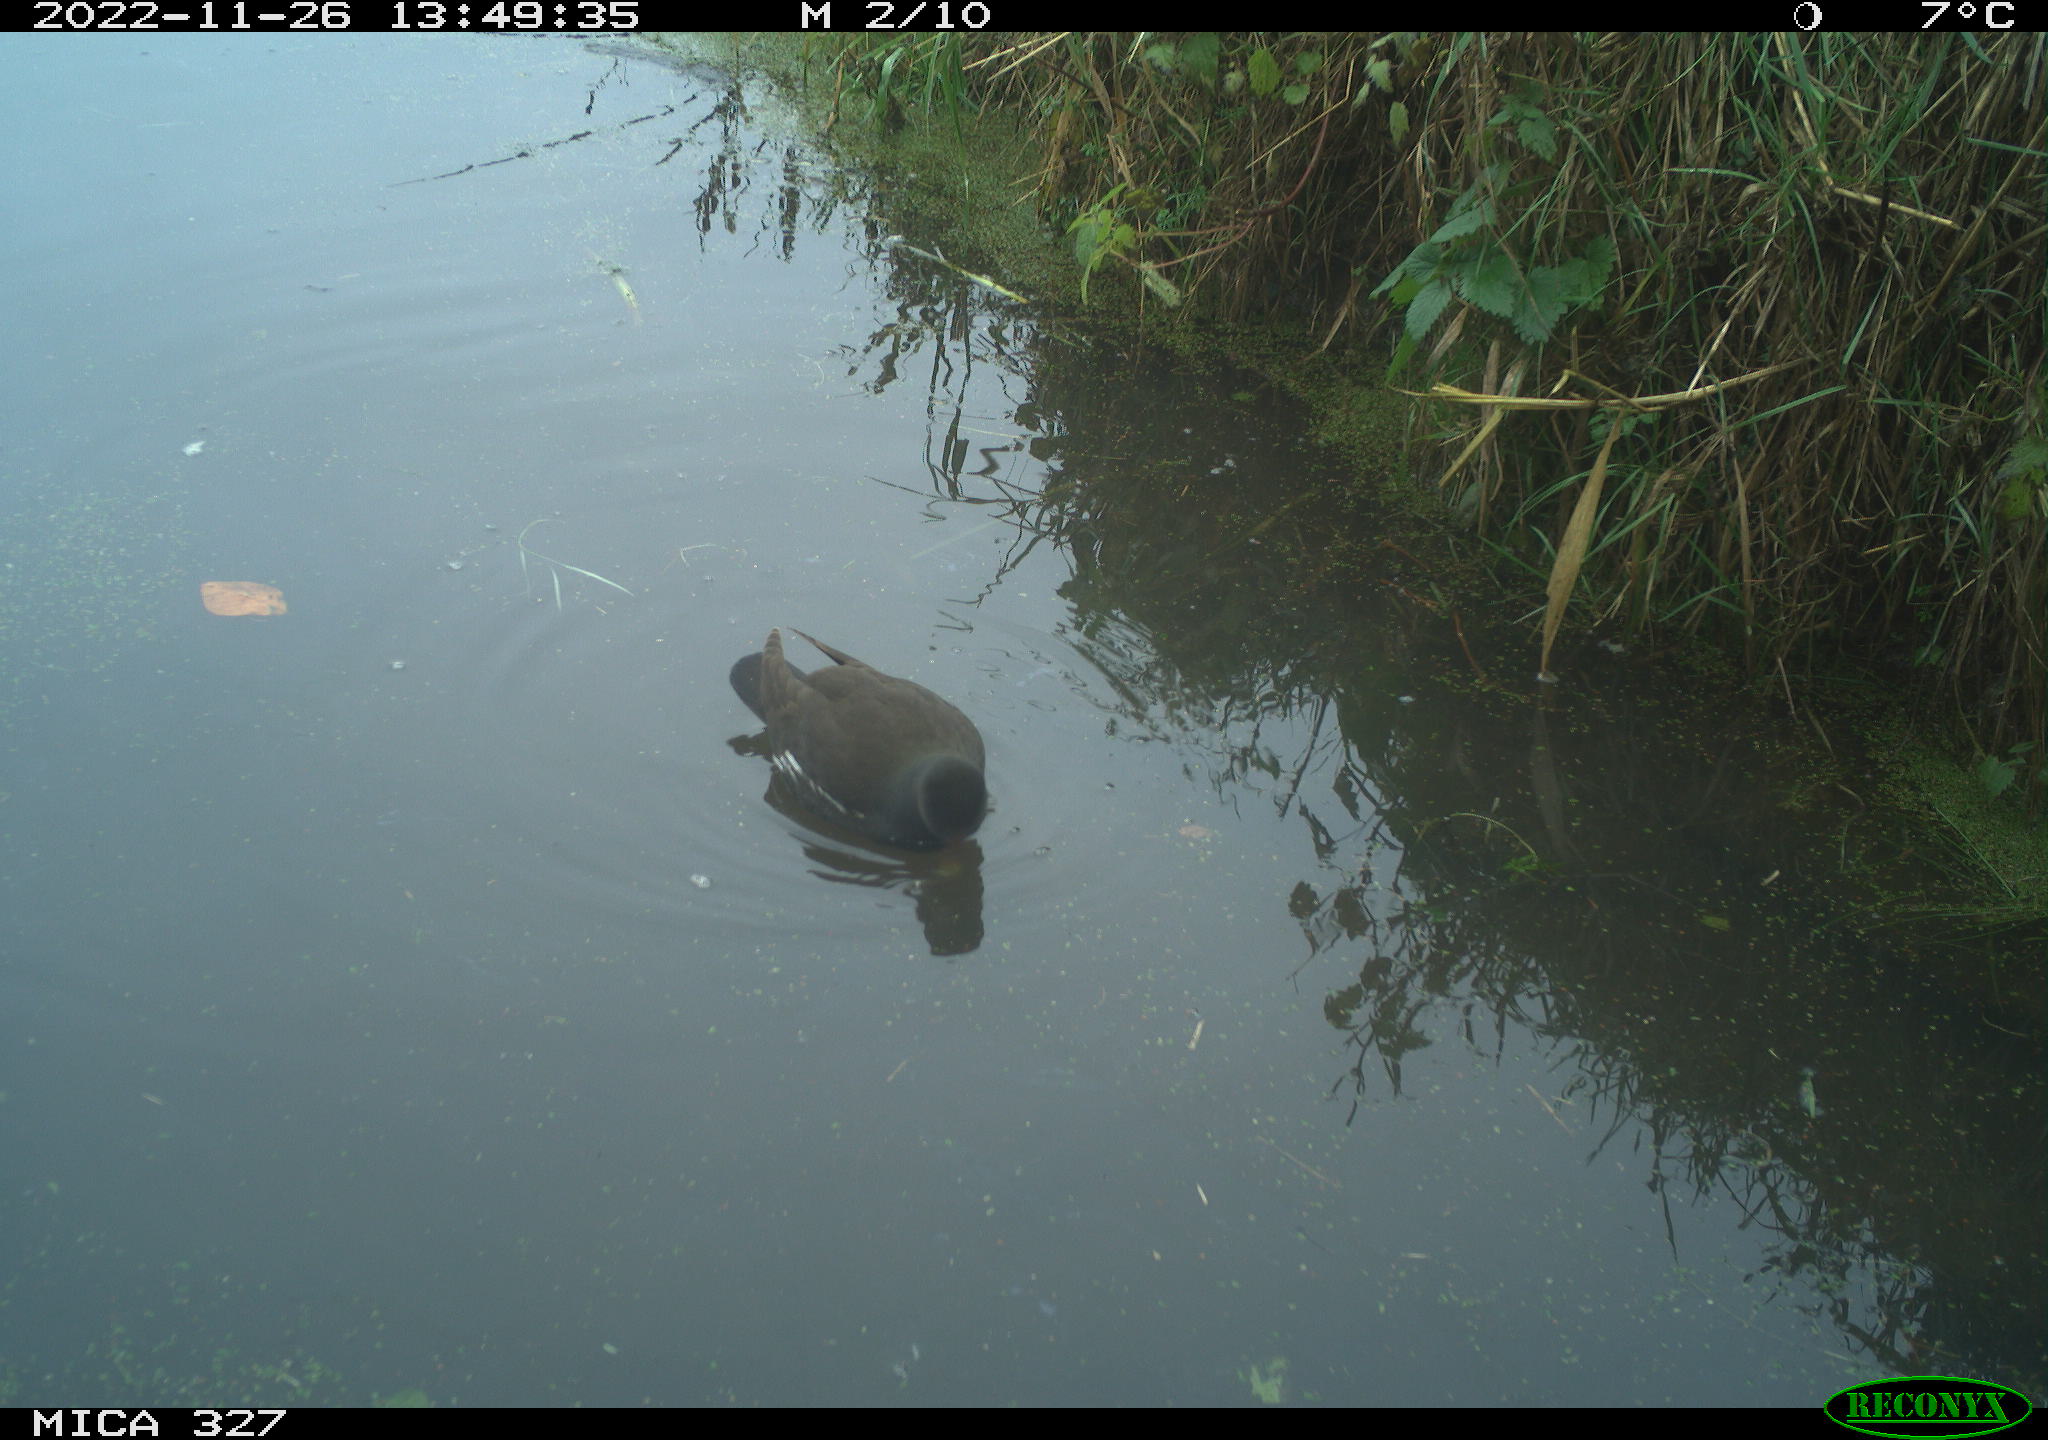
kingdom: Animalia
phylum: Chordata
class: Aves
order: Gruiformes
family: Rallidae
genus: Gallinula
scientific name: Gallinula chloropus
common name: Common moorhen
